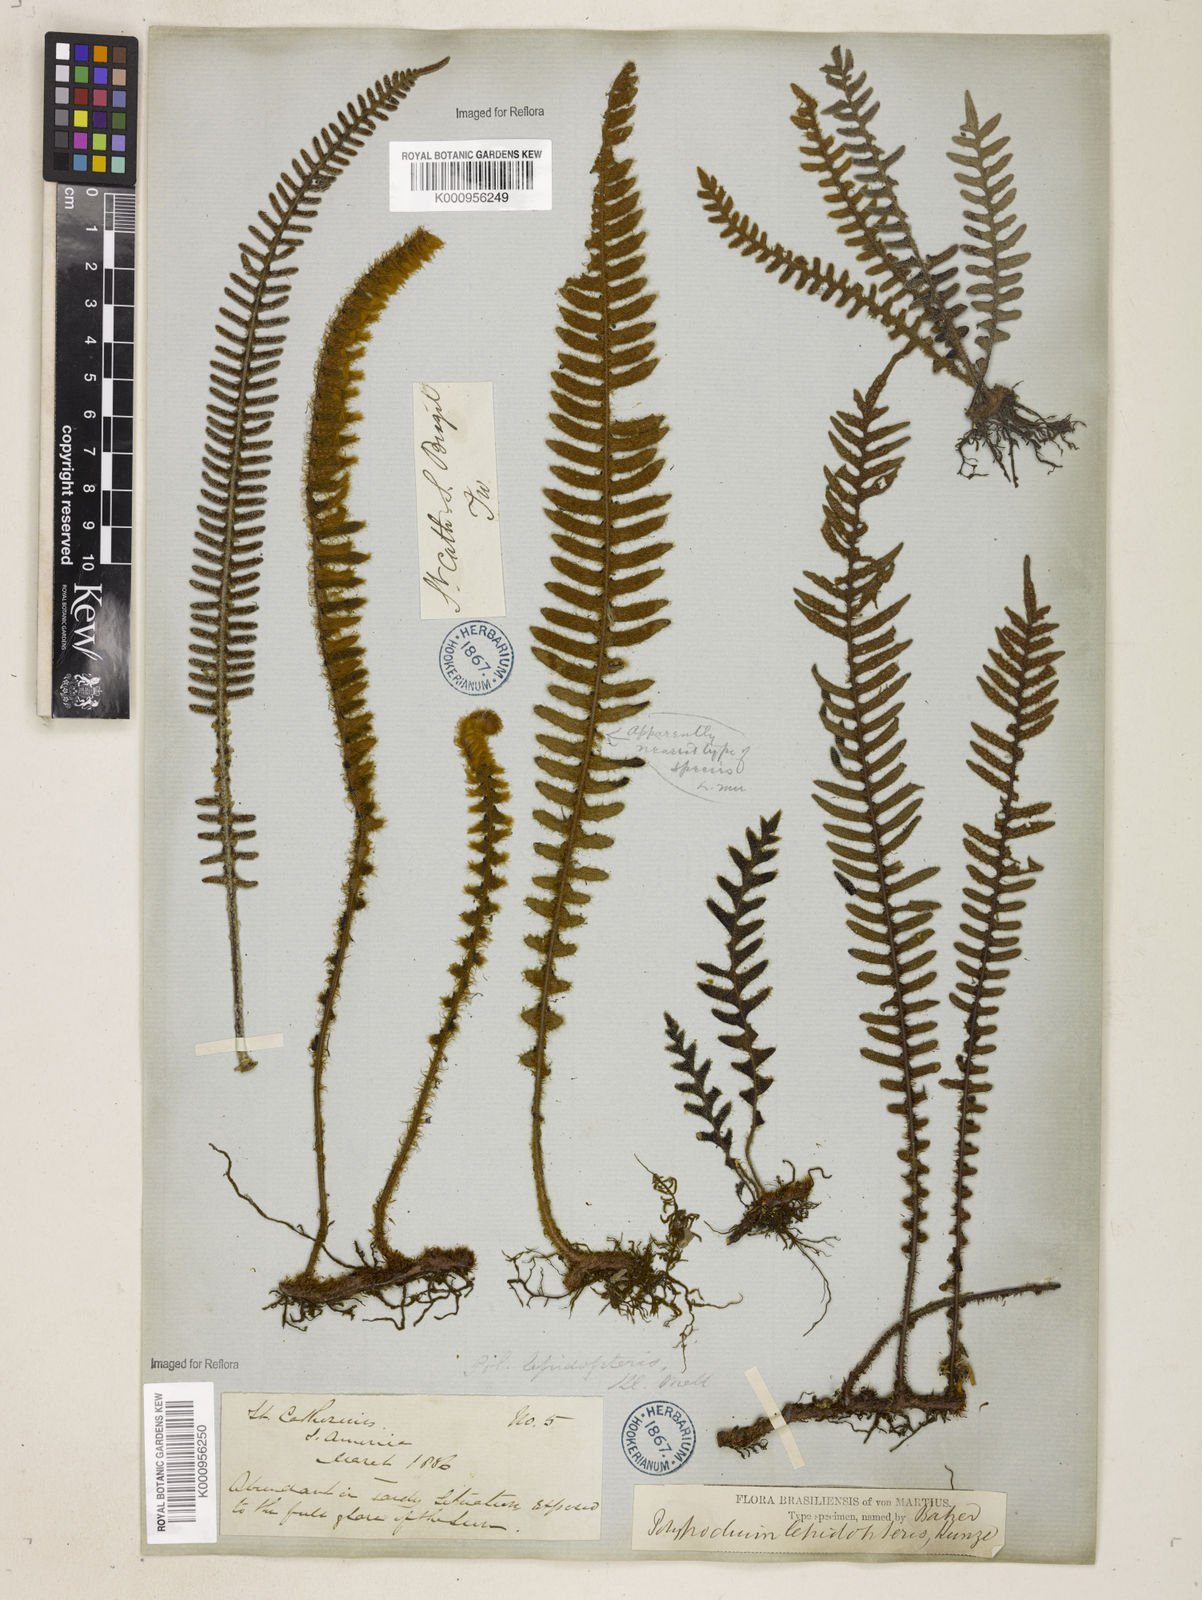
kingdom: Plantae
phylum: Tracheophyta
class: Polypodiopsida
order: Polypodiales
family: Polypodiaceae
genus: Pleopeltis
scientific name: Pleopeltis hirsutissima
